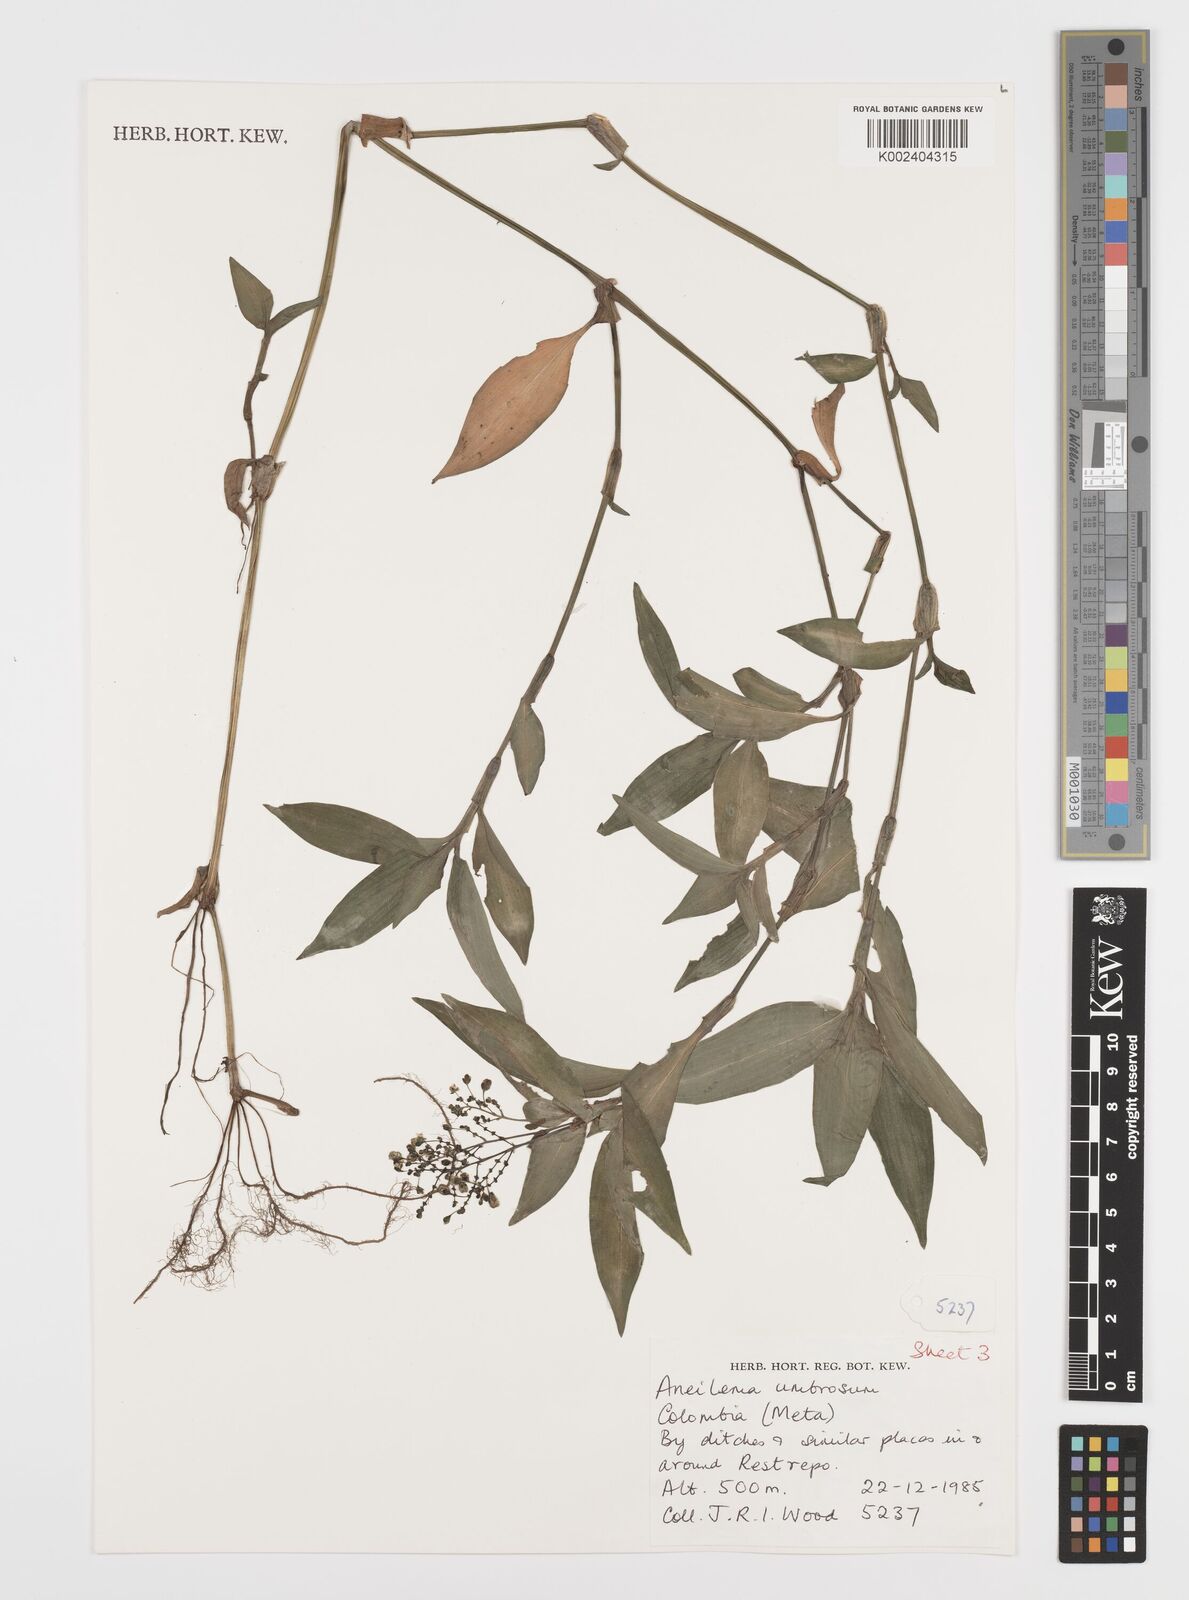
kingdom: Plantae
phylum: Tracheophyta
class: Liliopsida
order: Commelinales
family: Commelinaceae
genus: Aneilema
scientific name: Aneilema umbrosum
